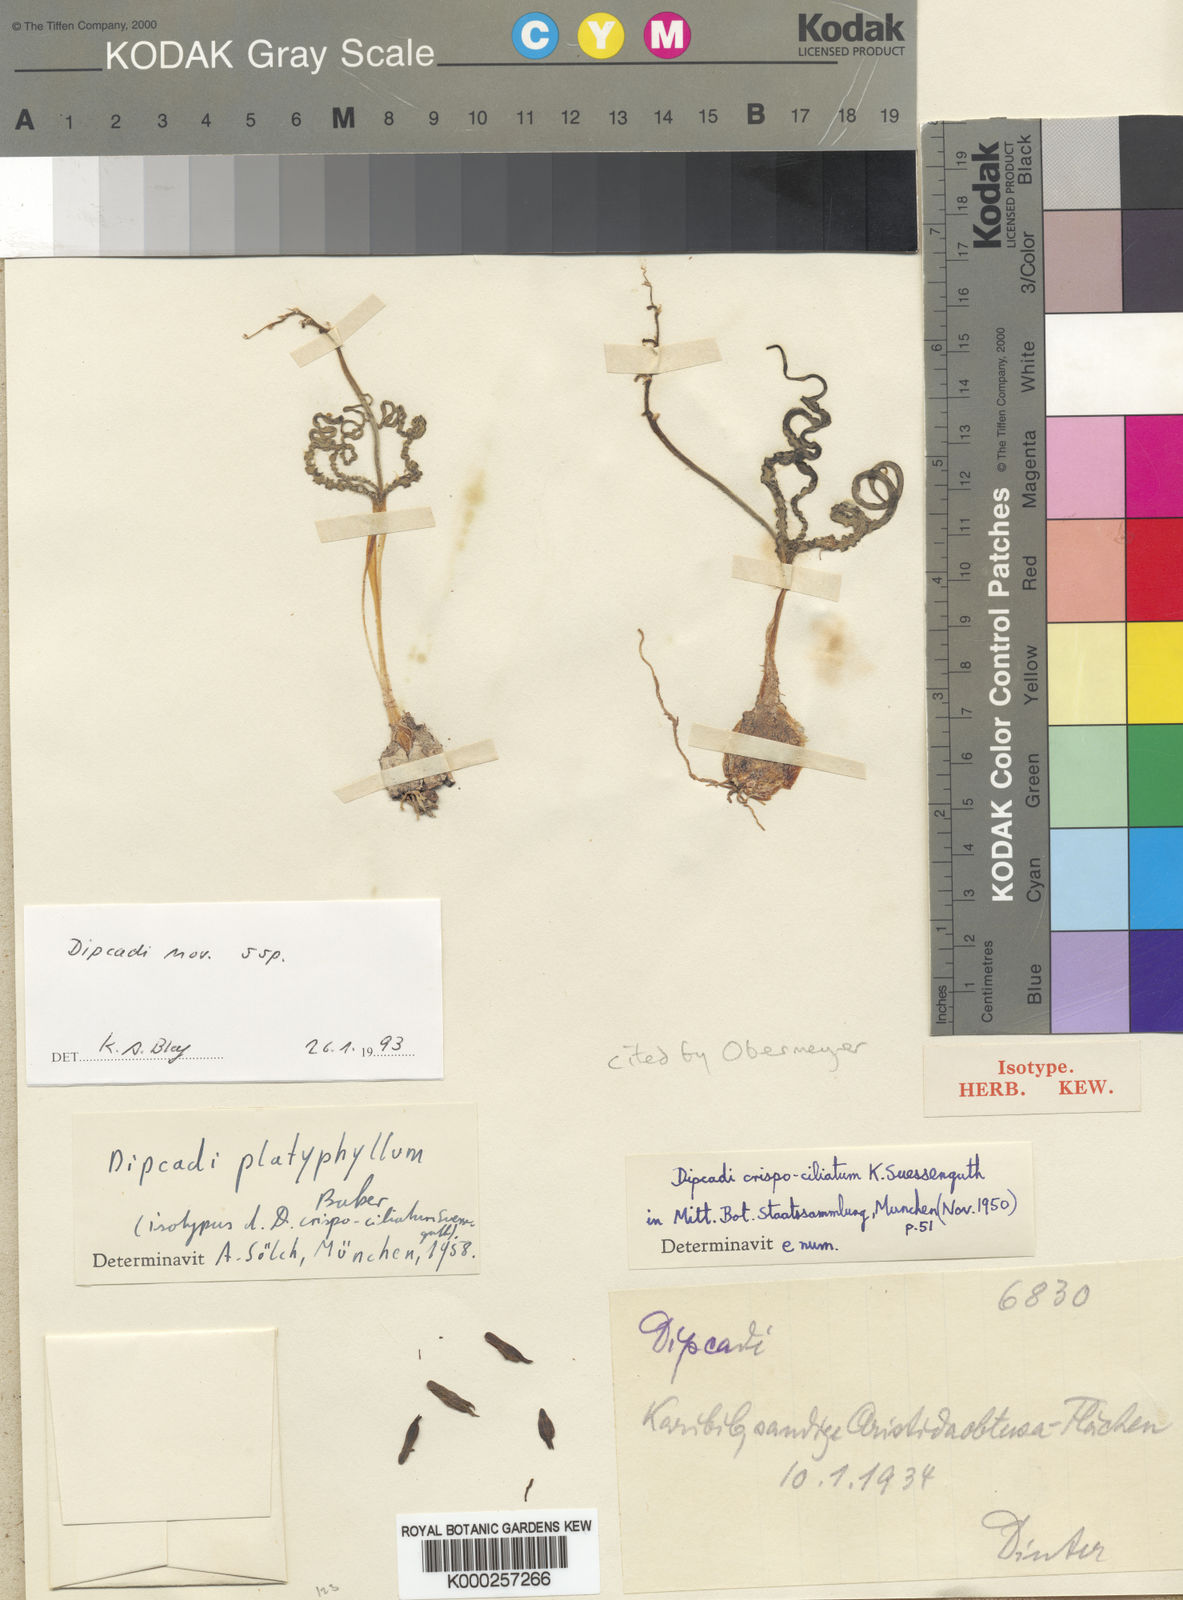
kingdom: Plantae
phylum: Tracheophyta
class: Liliopsida
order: Asparagales
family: Asparagaceae
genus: Dipcadi
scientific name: Dipcadi crispum
